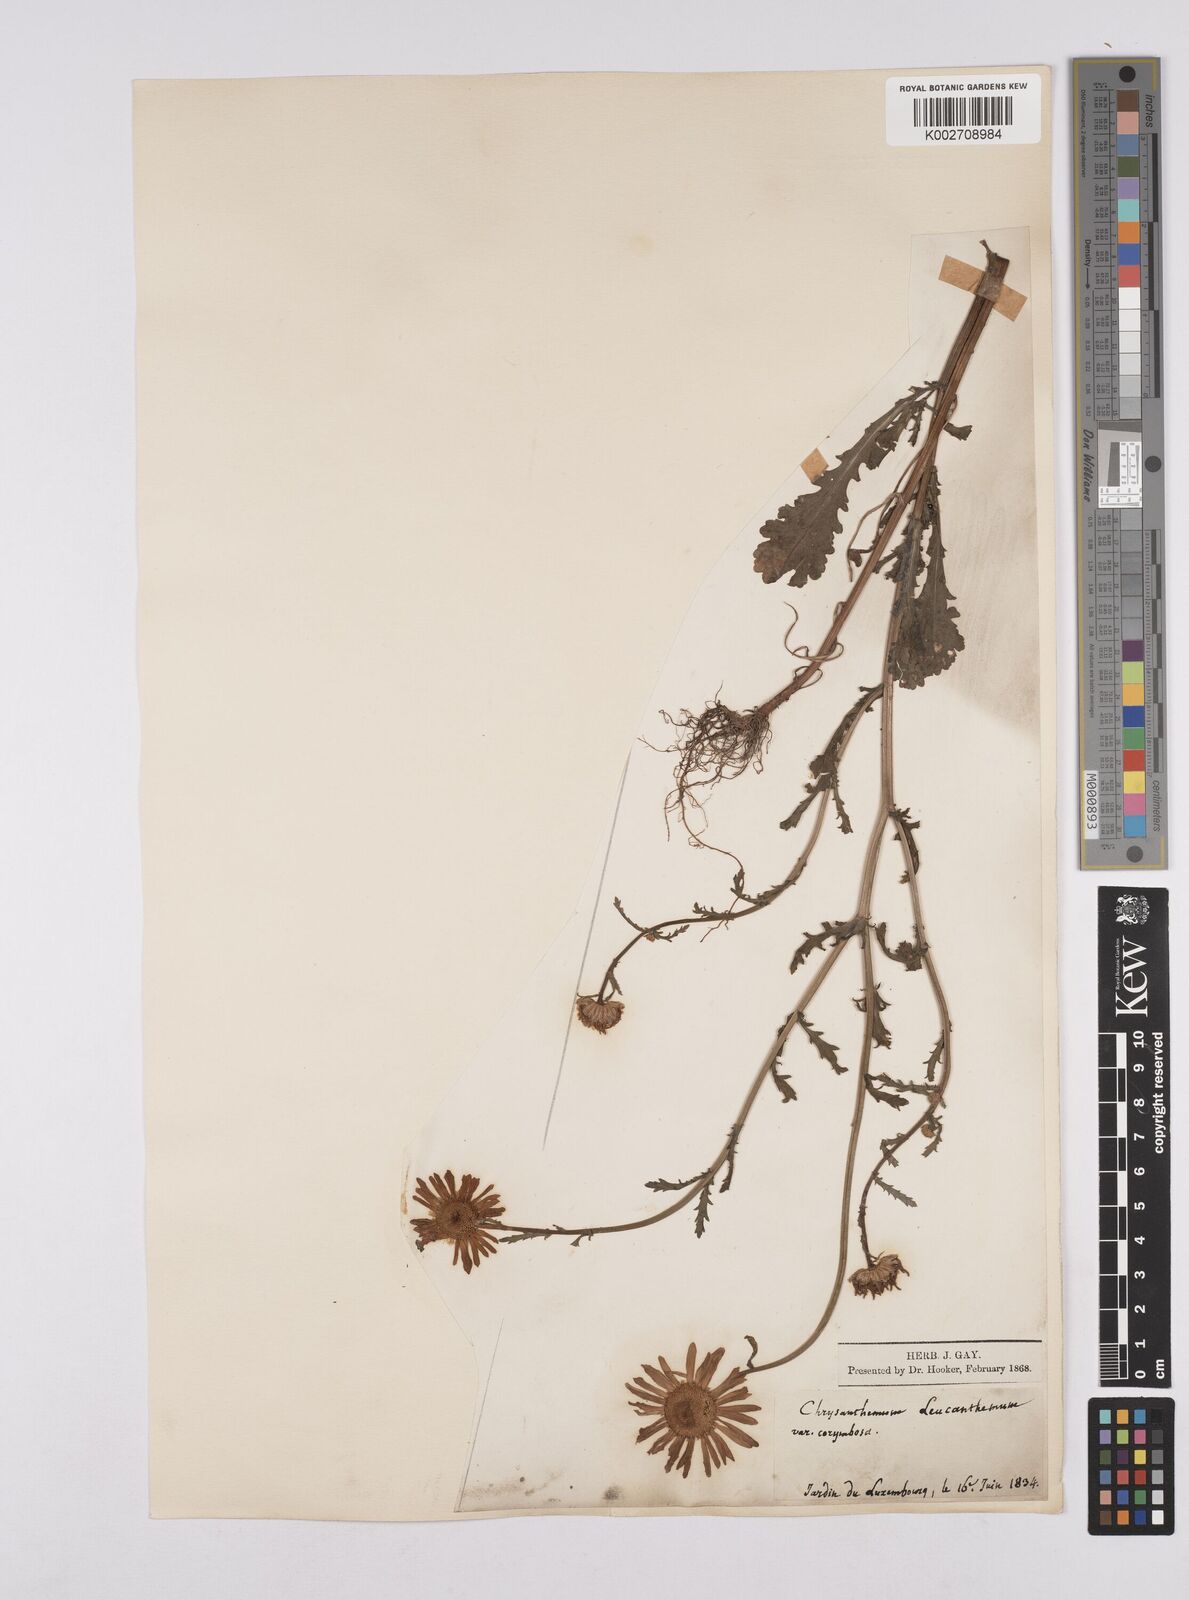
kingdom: Plantae
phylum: Tracheophyta
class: Magnoliopsida
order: Asterales
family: Asteraceae
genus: Leucanthemum
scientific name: Leucanthemum vulgare
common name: Oxeye daisy
